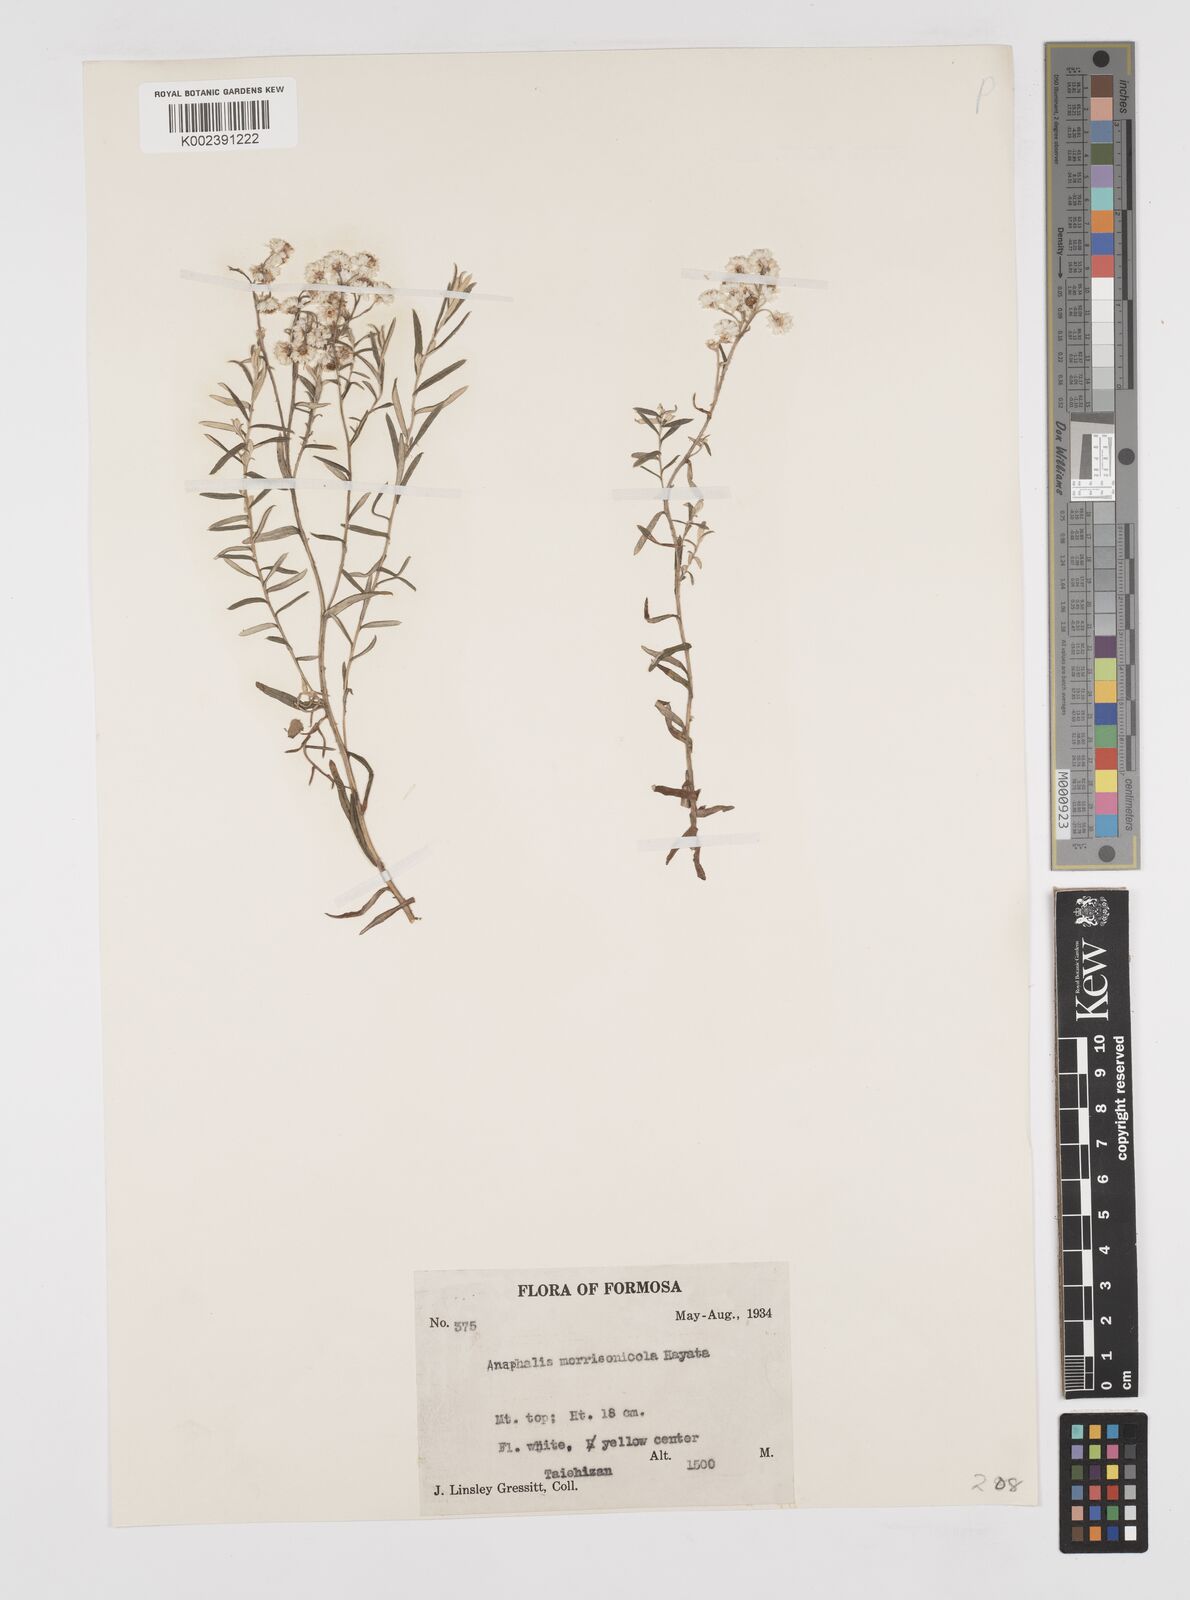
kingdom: Plantae
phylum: Tracheophyta
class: Magnoliopsida
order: Asterales
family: Asteraceae
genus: Anaphalis
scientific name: Anaphalis morrisonicola
